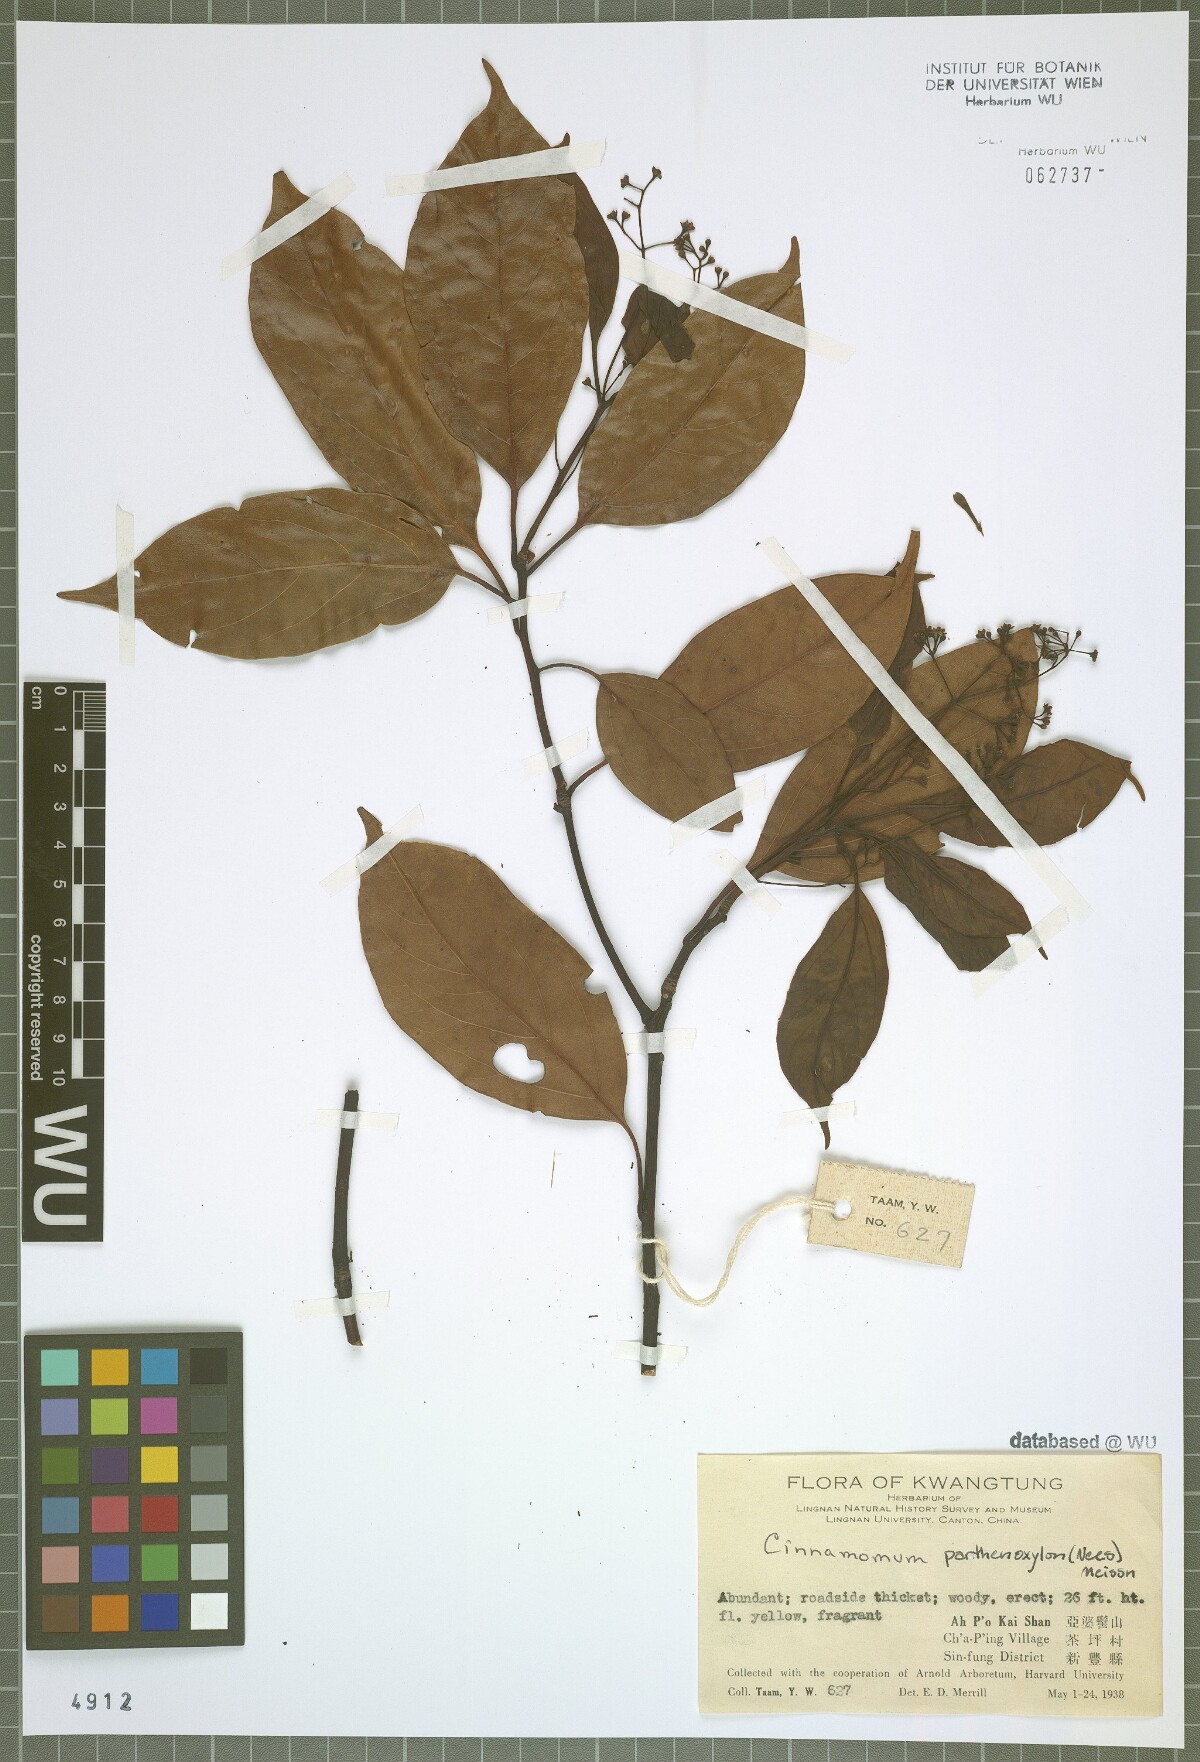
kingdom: Plantae
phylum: Tracheophyta
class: Magnoliopsida
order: Laurales
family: Lauraceae
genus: Cinnamomum
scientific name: Cinnamomum parthenoxylon
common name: Martaban camphor wood
